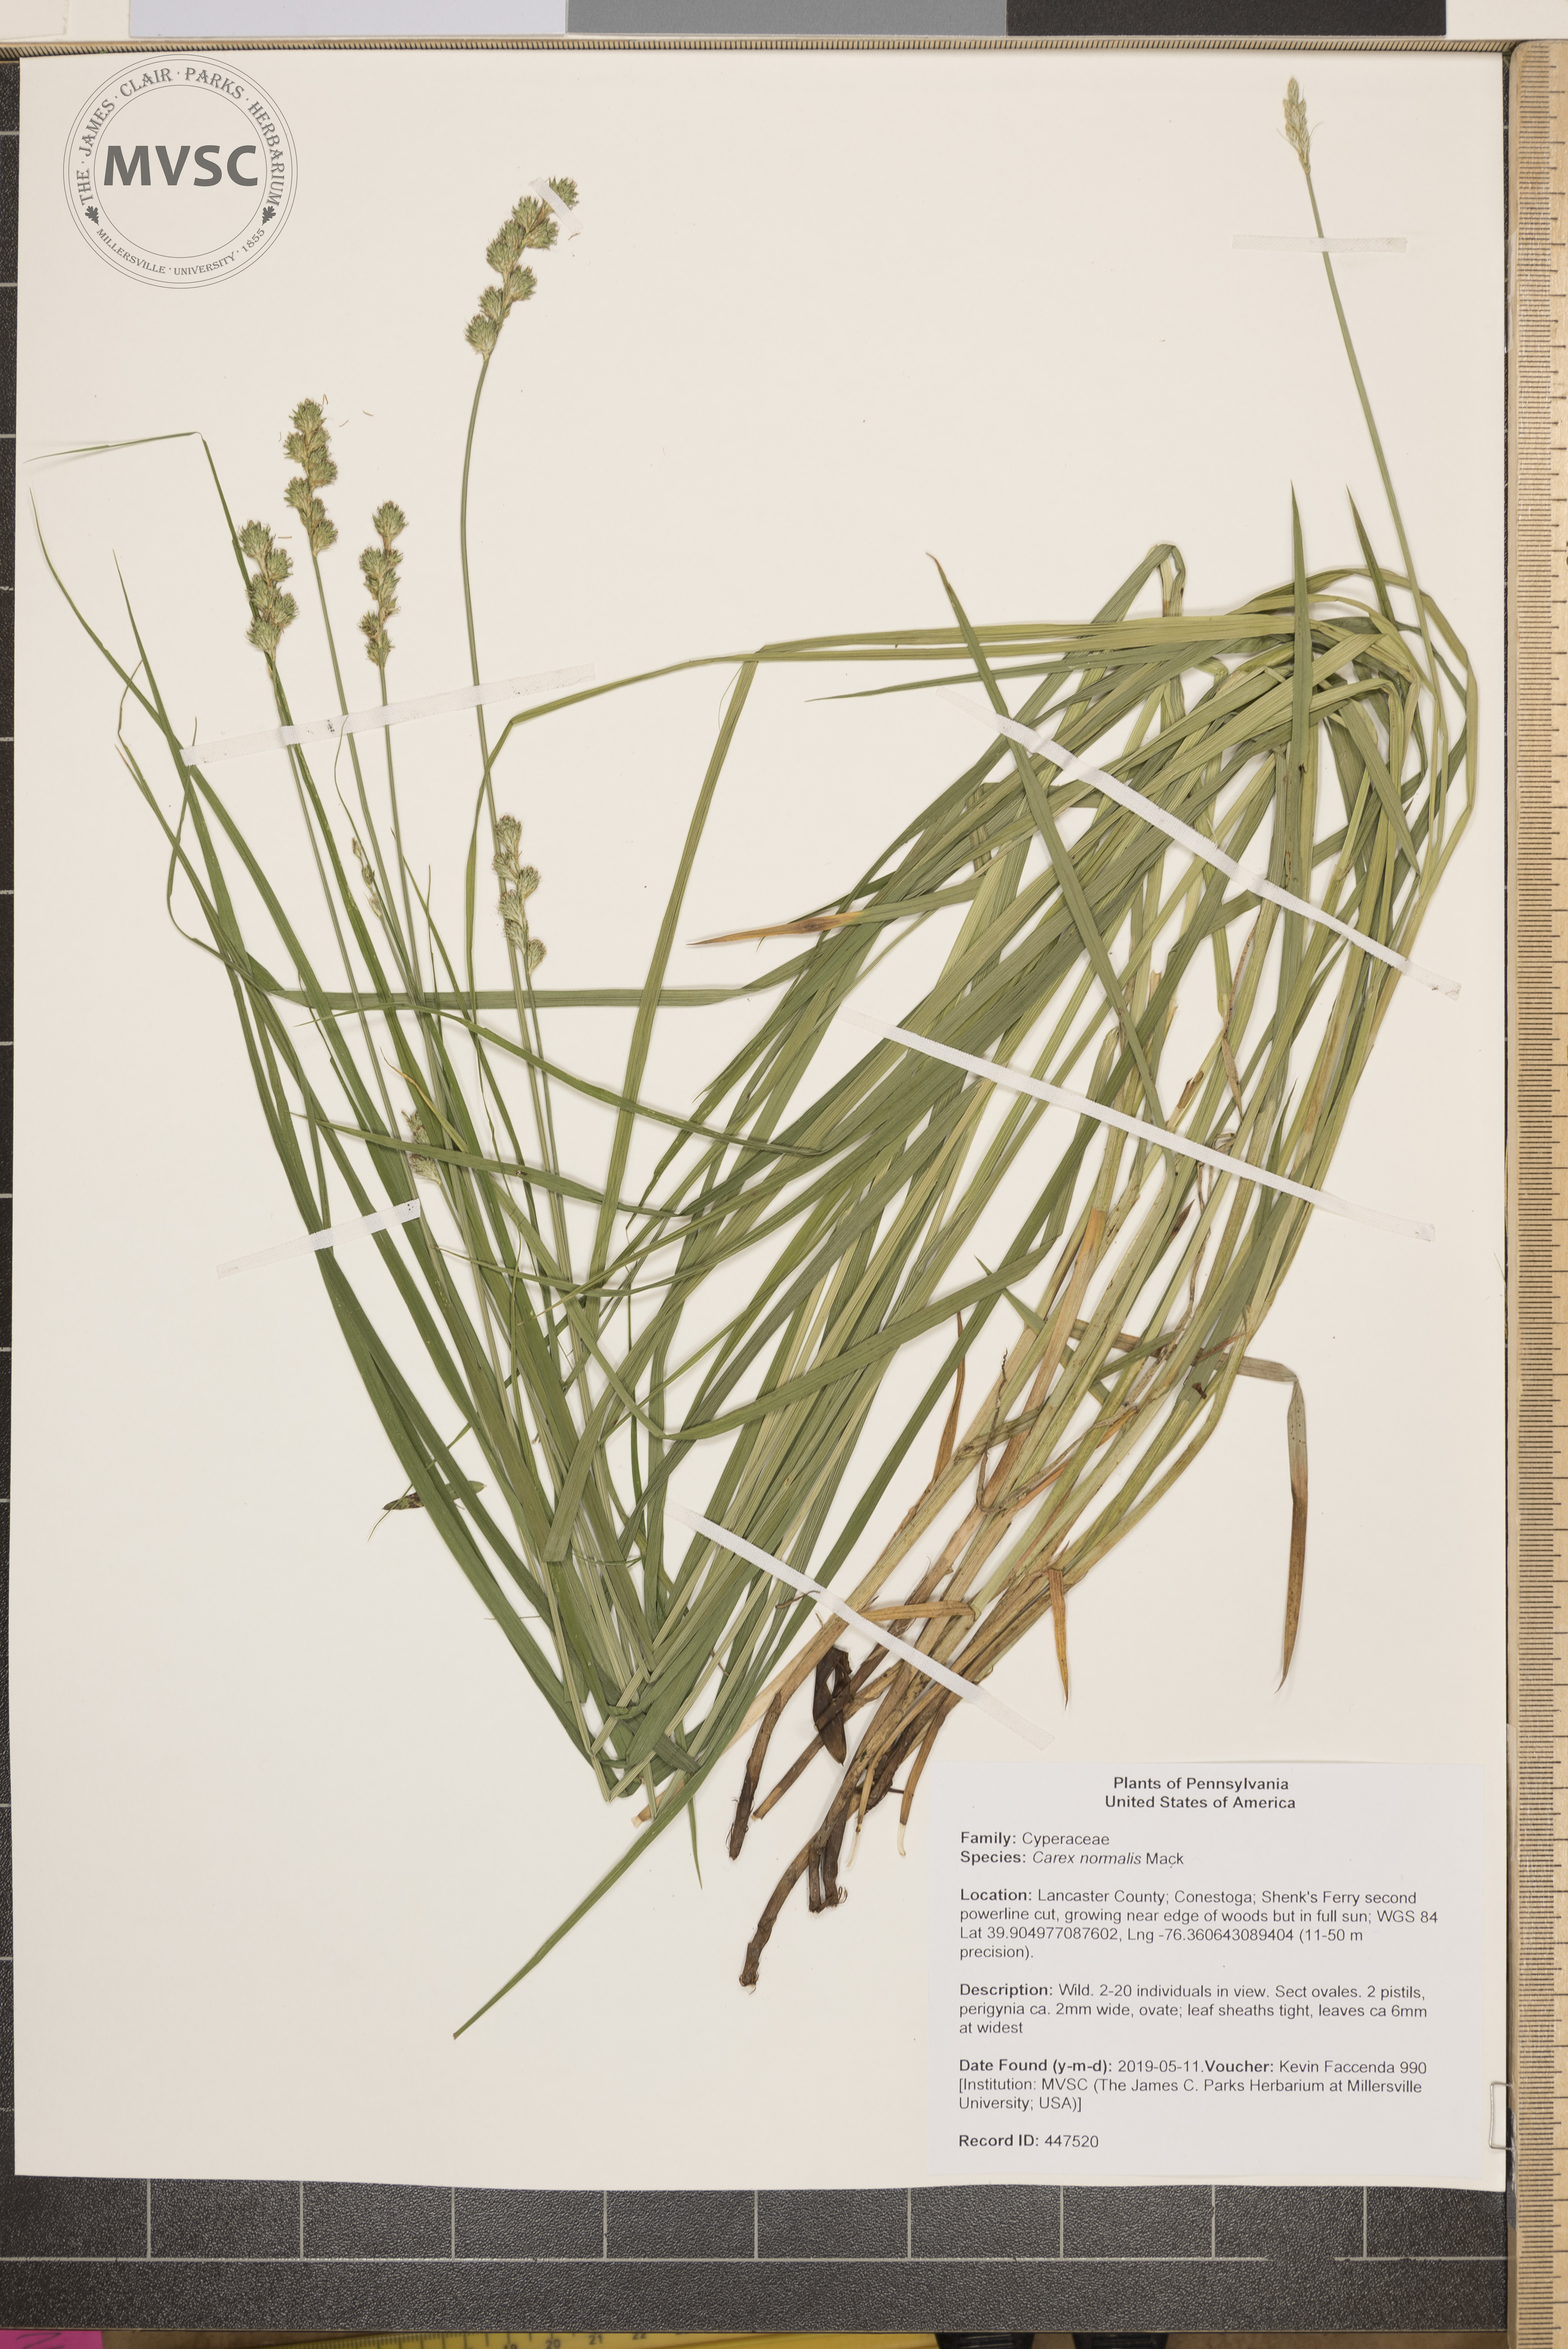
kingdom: Plantae
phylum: Tracheophyta
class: Liliopsida
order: Poales
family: Cyperaceae
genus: Carex
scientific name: Carex normalis
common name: Greater straw sedge
